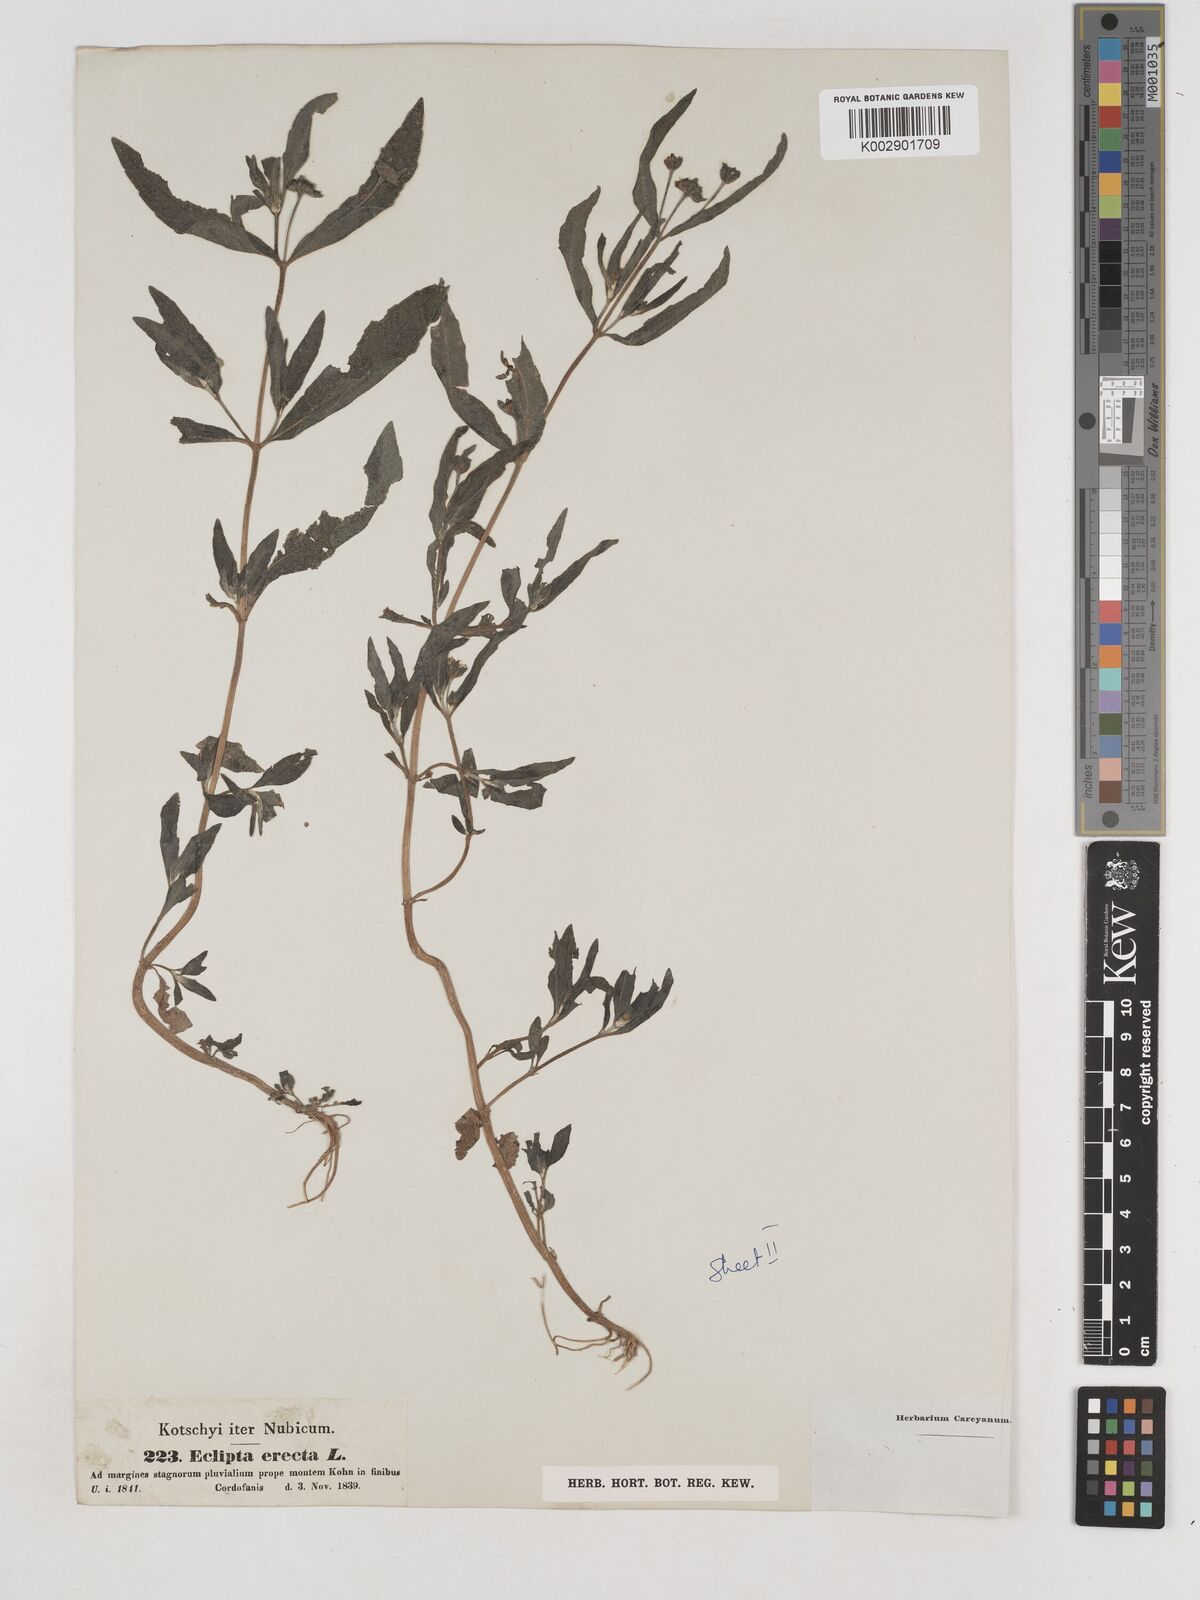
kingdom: Plantae
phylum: Tracheophyta
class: Magnoliopsida
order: Asterales
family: Asteraceae
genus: Eclipta
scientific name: Eclipta alba
